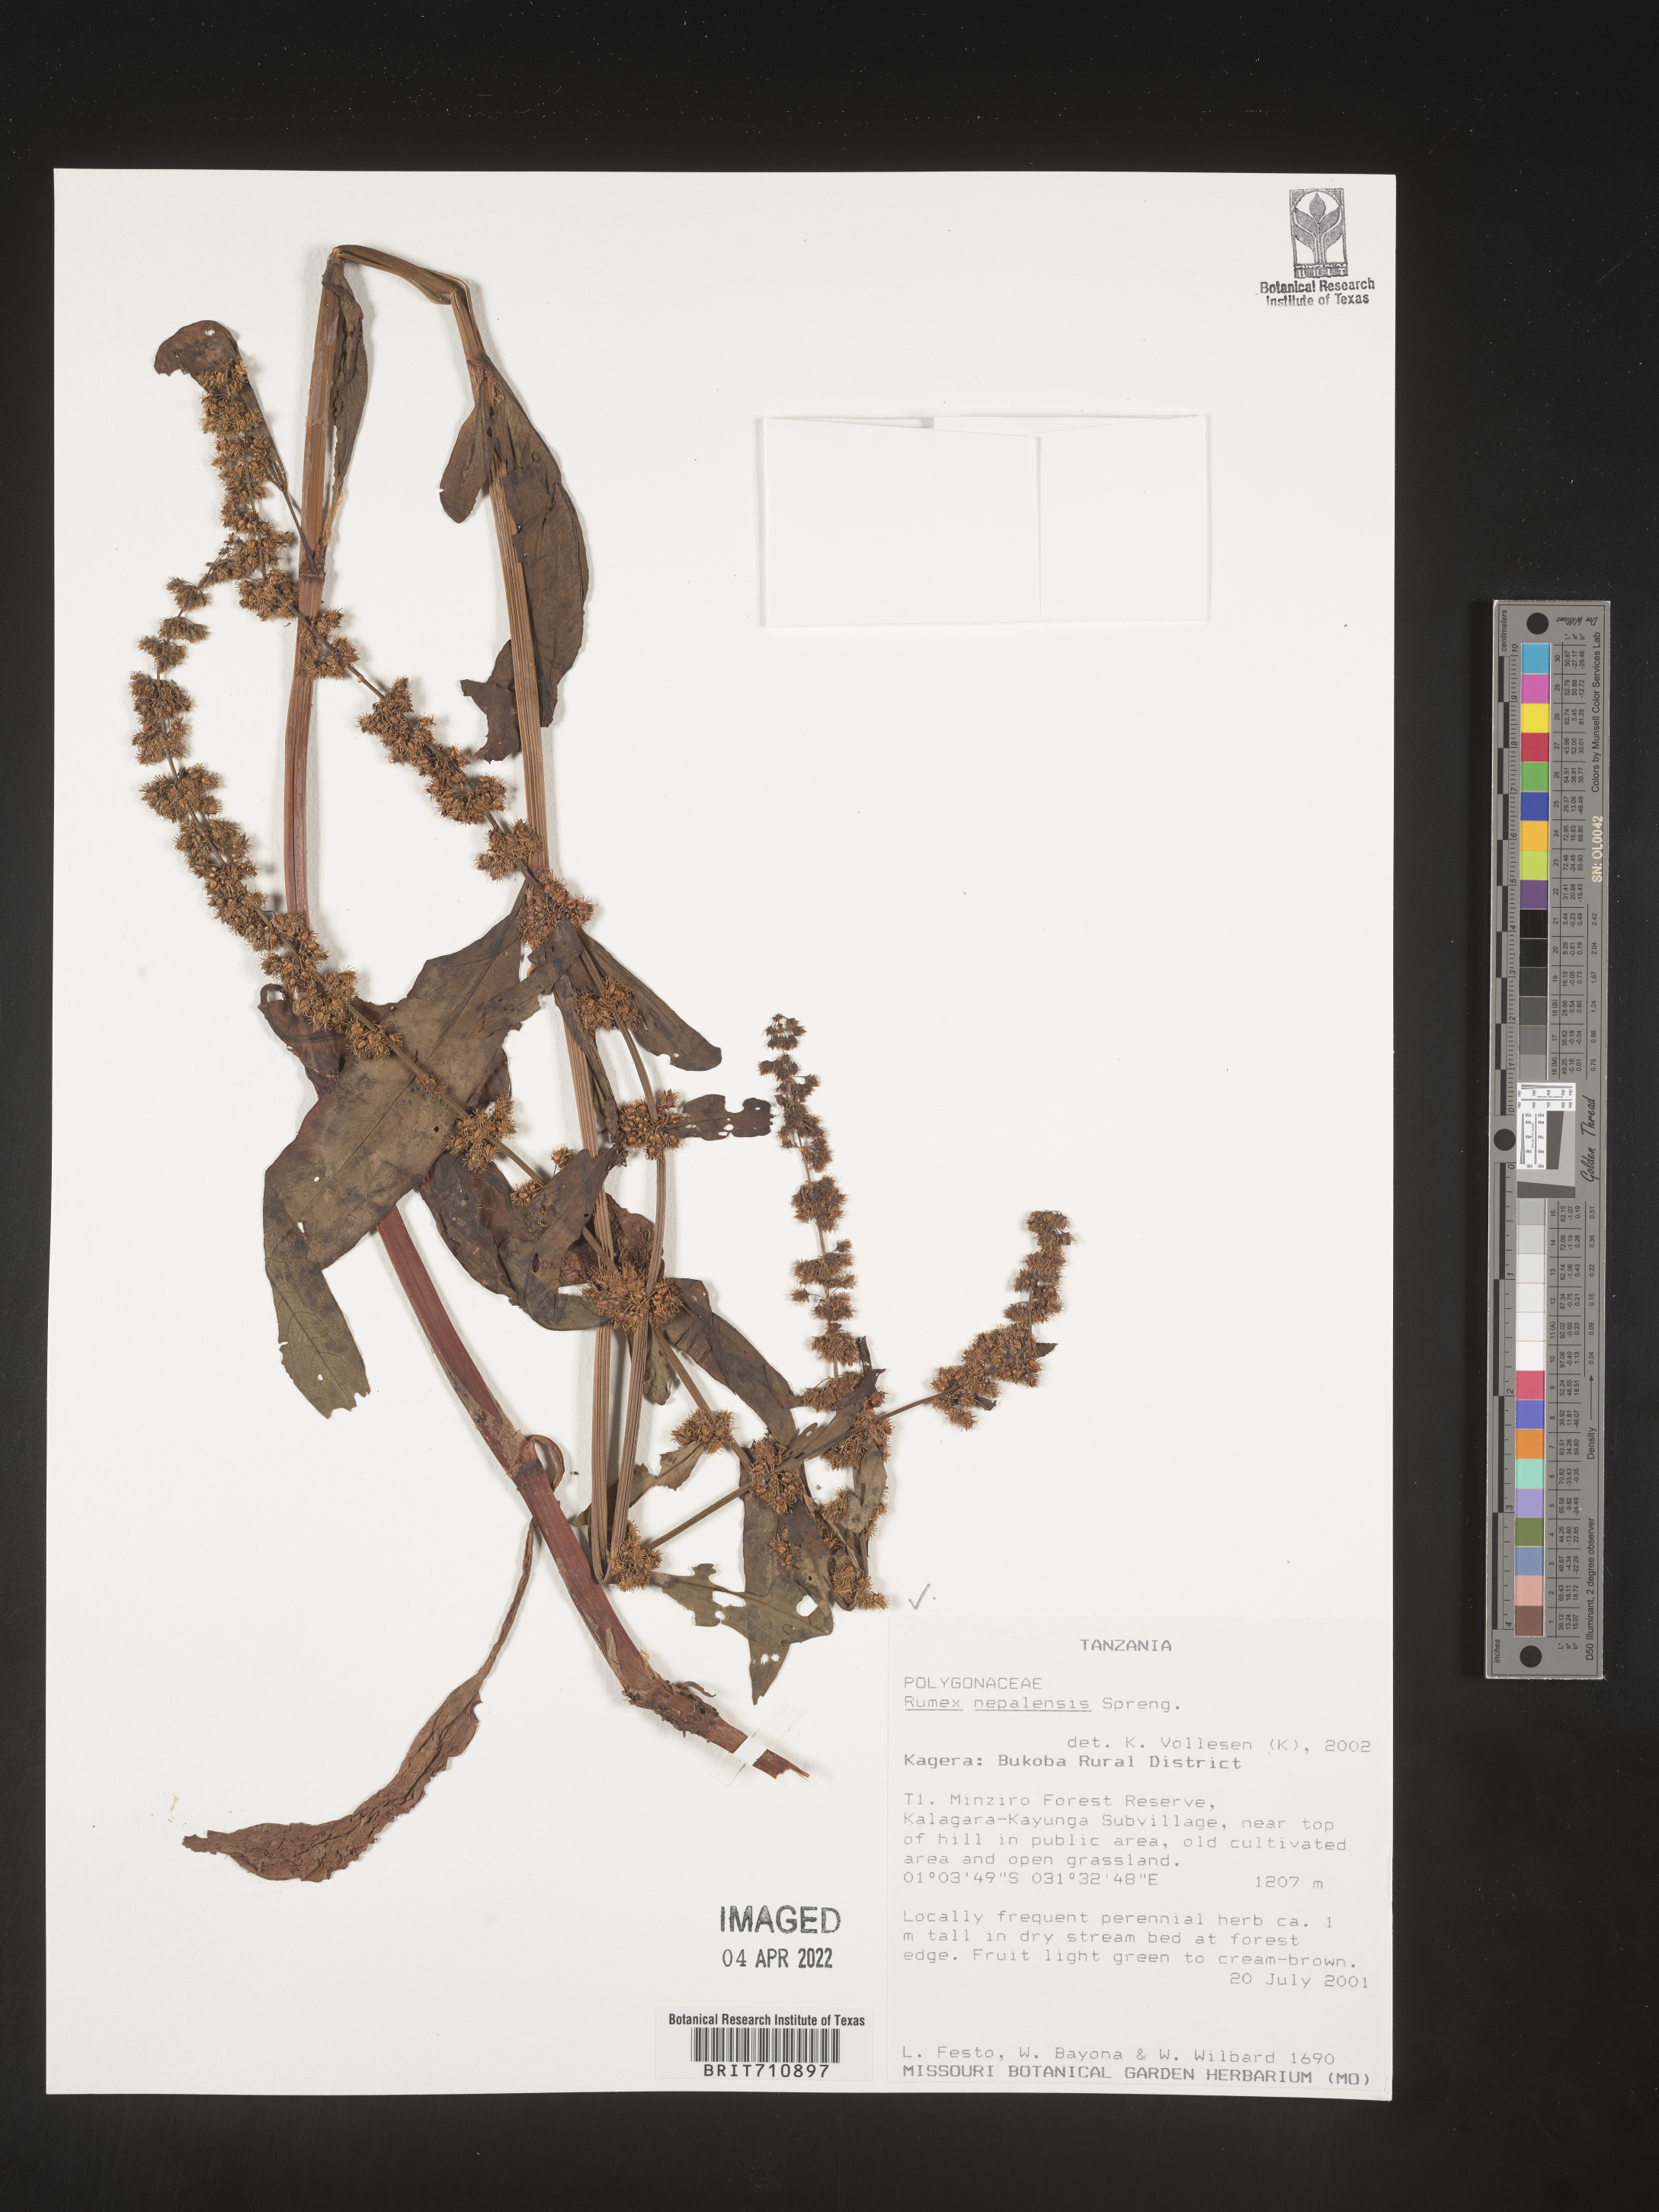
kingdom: Plantae
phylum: Tracheophyta
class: Magnoliopsida
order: Caryophyllales
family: Polygonaceae
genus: Rumex
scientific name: Rumex
